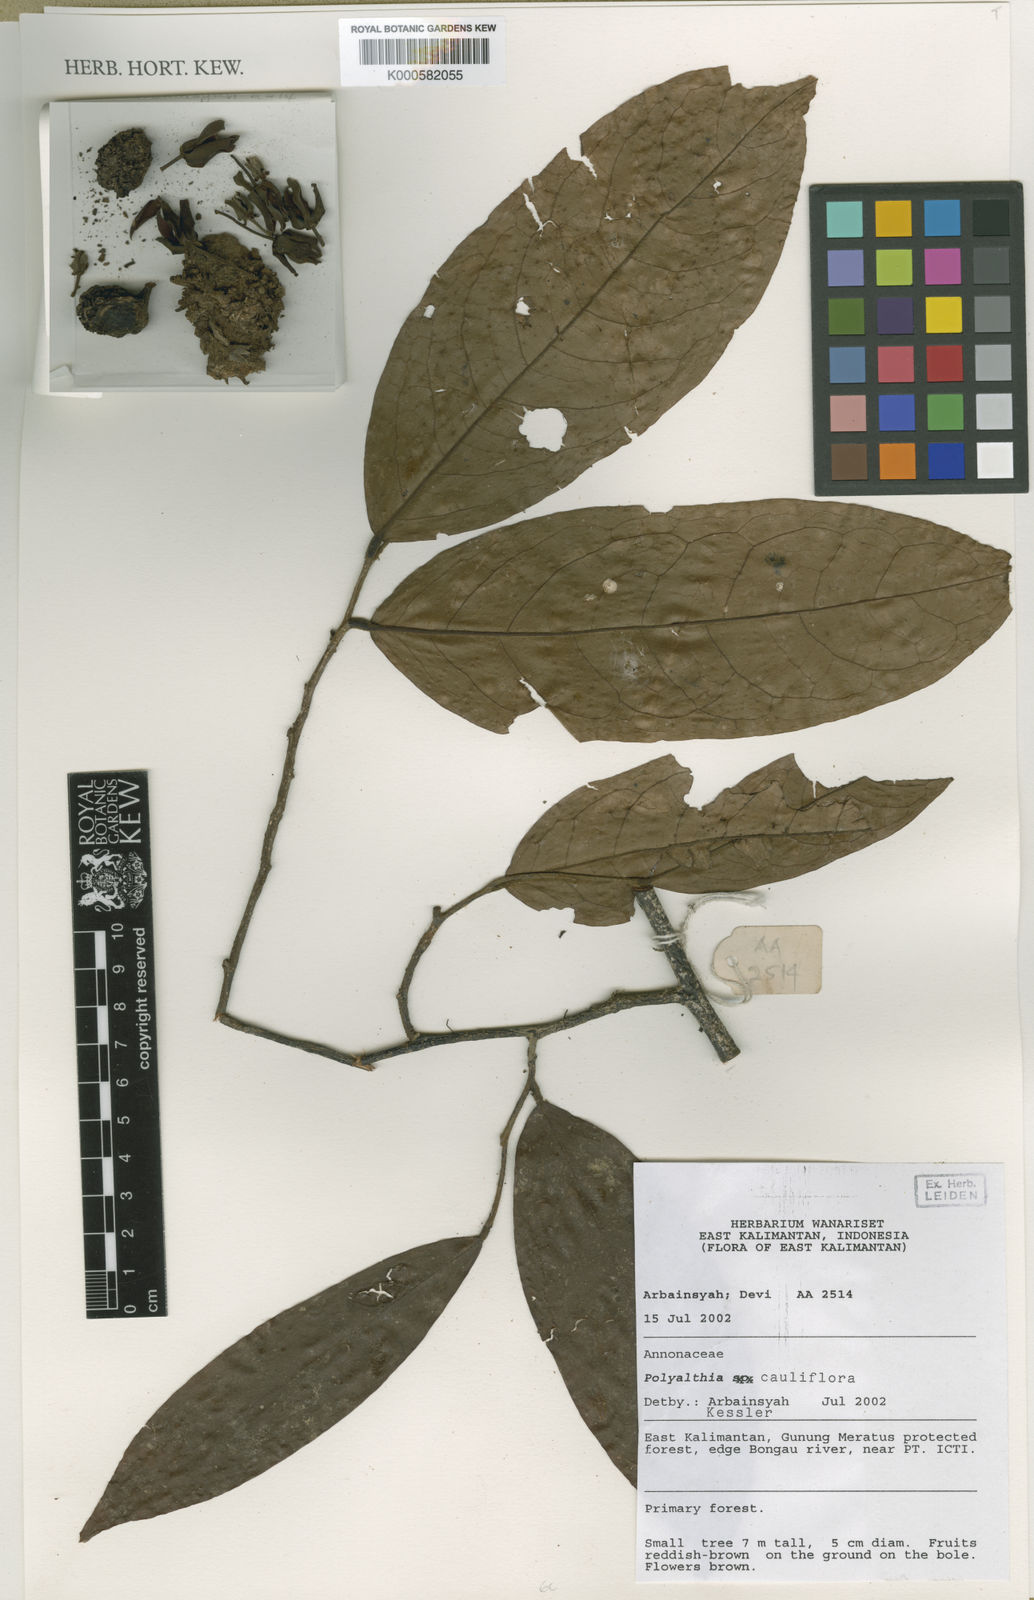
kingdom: Plantae
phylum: Tracheophyta
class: Magnoliopsida
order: Magnoliales
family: Annonaceae
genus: Polyalthia
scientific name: Polyalthia myristica
